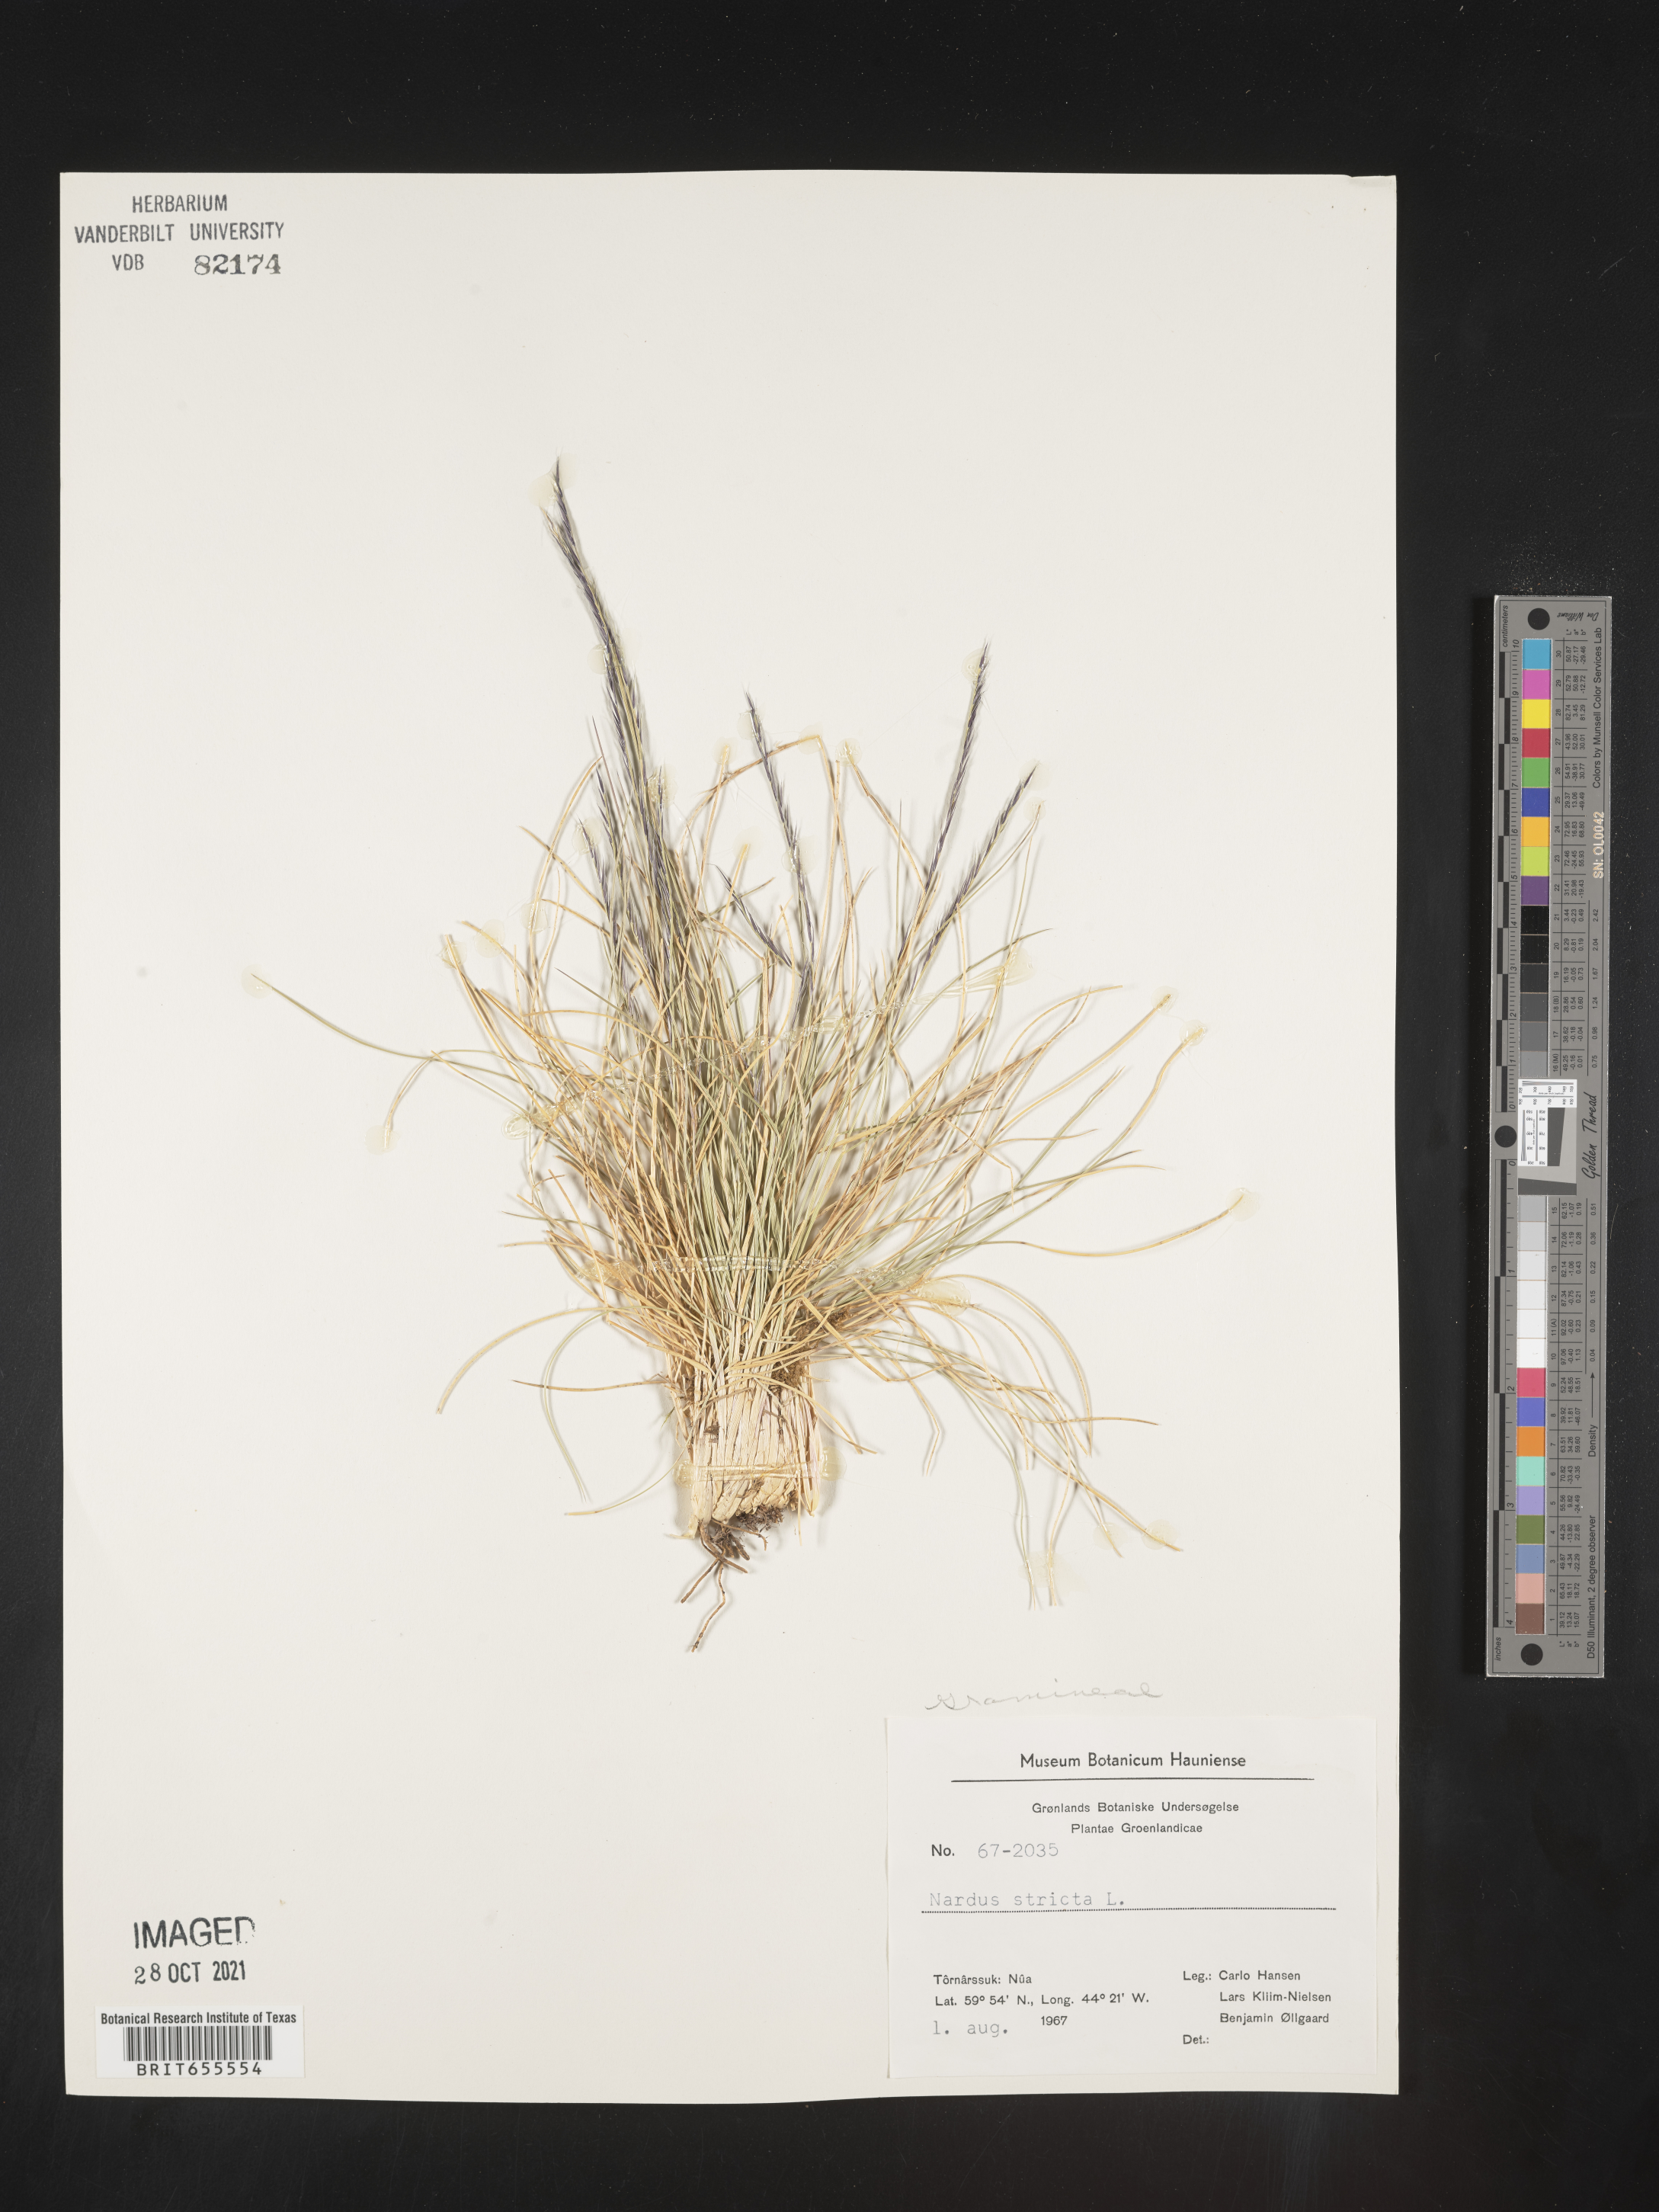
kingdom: Plantae
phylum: Tracheophyta
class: Liliopsida
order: Poales
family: Poaceae
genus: Nardus
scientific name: Nardus
